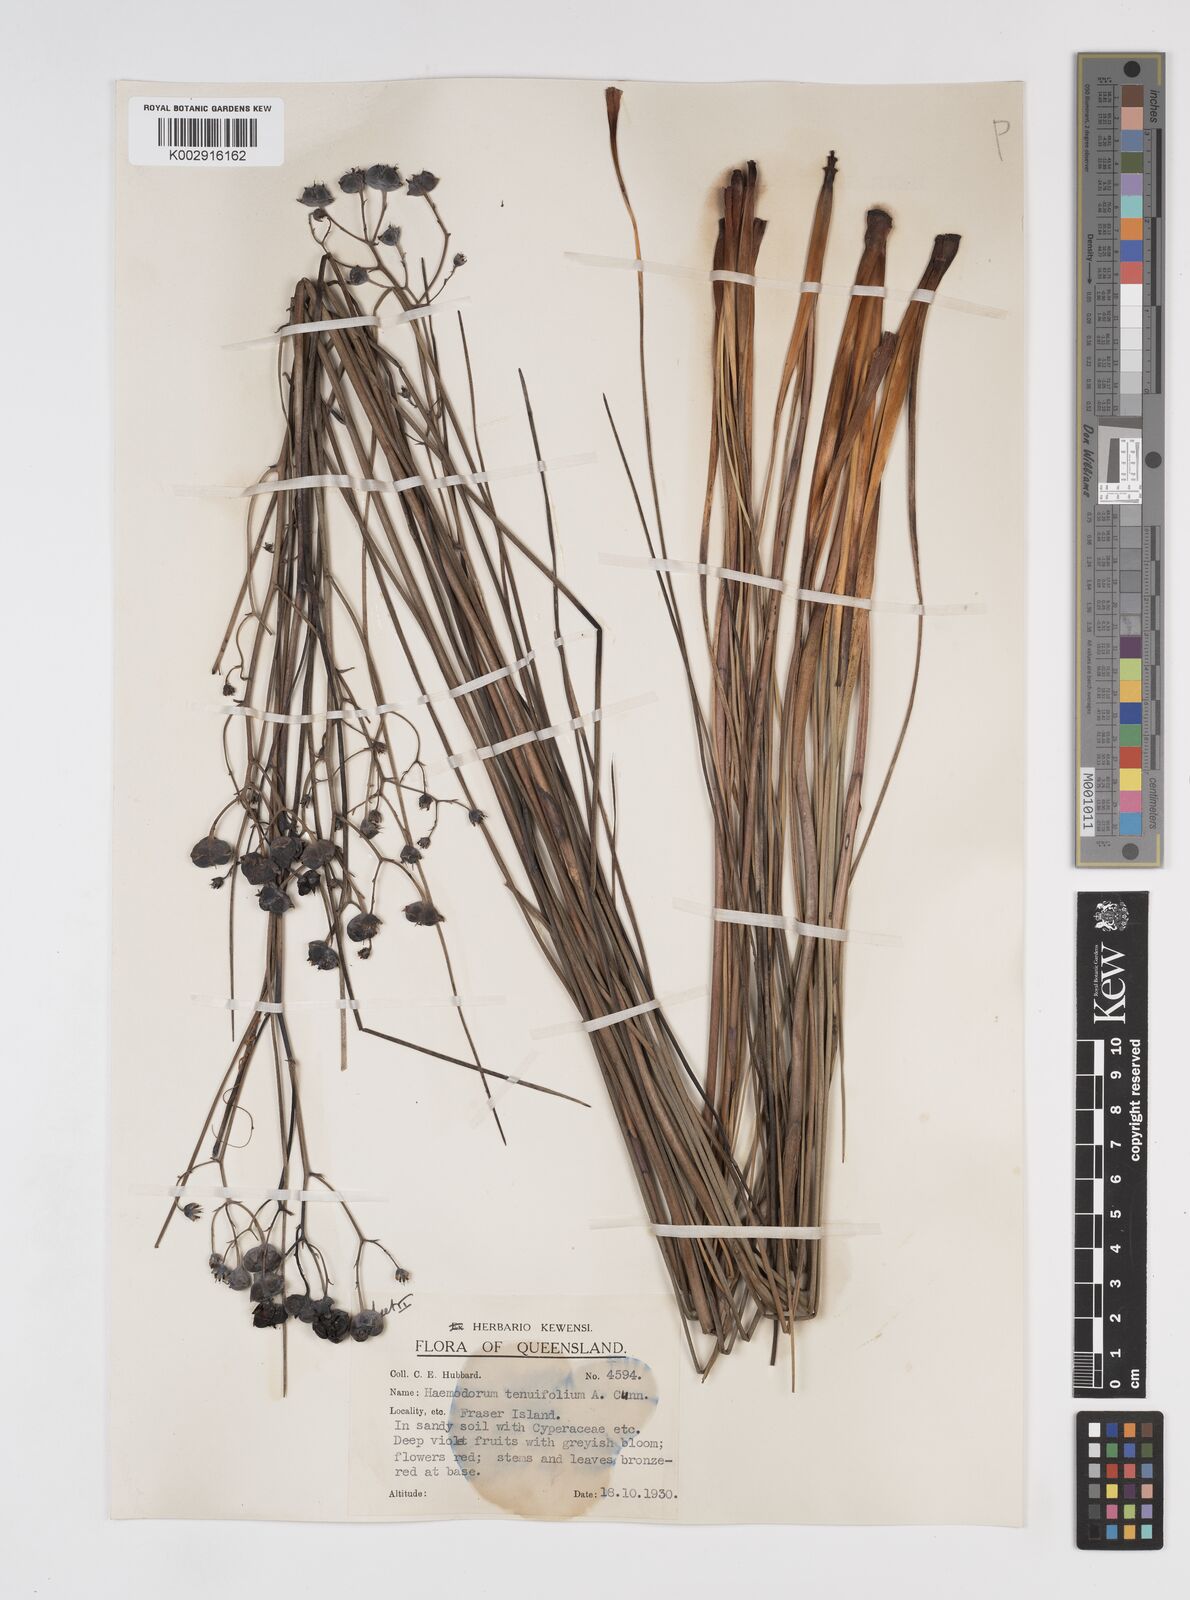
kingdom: Plantae
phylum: Tracheophyta
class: Liliopsida
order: Commelinales
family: Haemodoraceae
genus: Haemodorum
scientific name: Haemodorum tenuifolium
